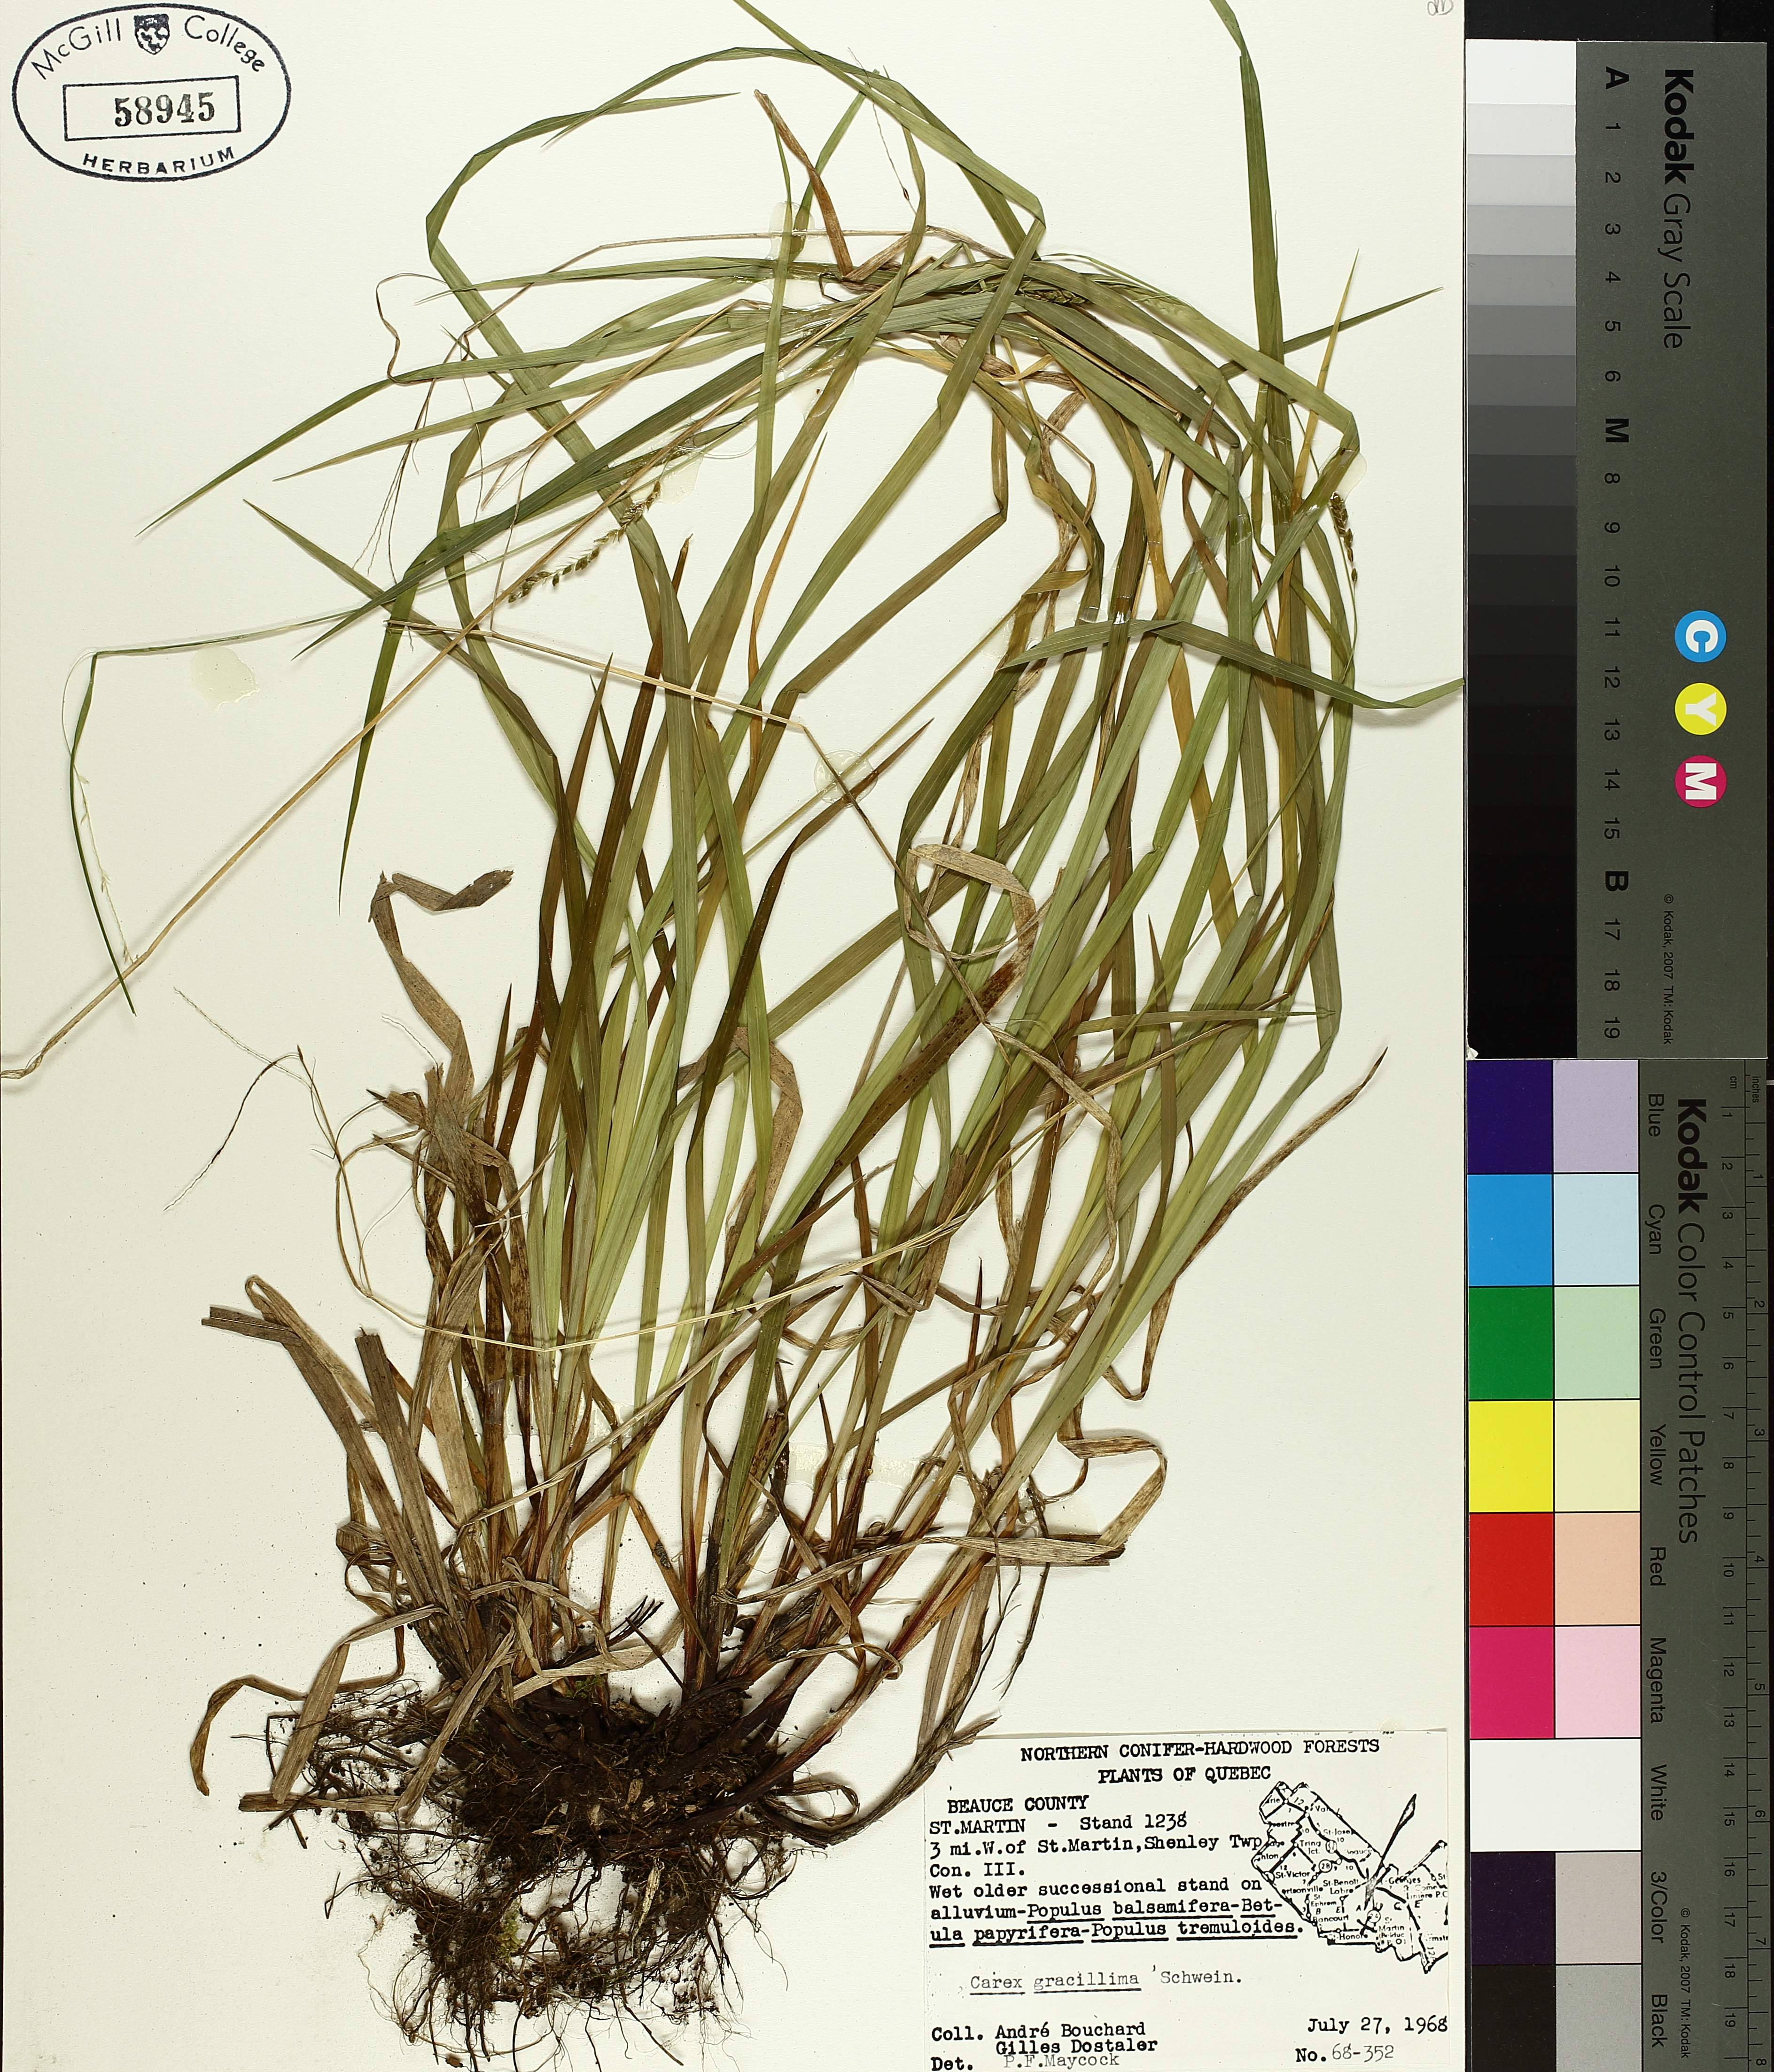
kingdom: Plantae
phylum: Tracheophyta
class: Liliopsida
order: Poales
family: Cyperaceae
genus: Carex
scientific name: Carex gracillima
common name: Graceful sedge
